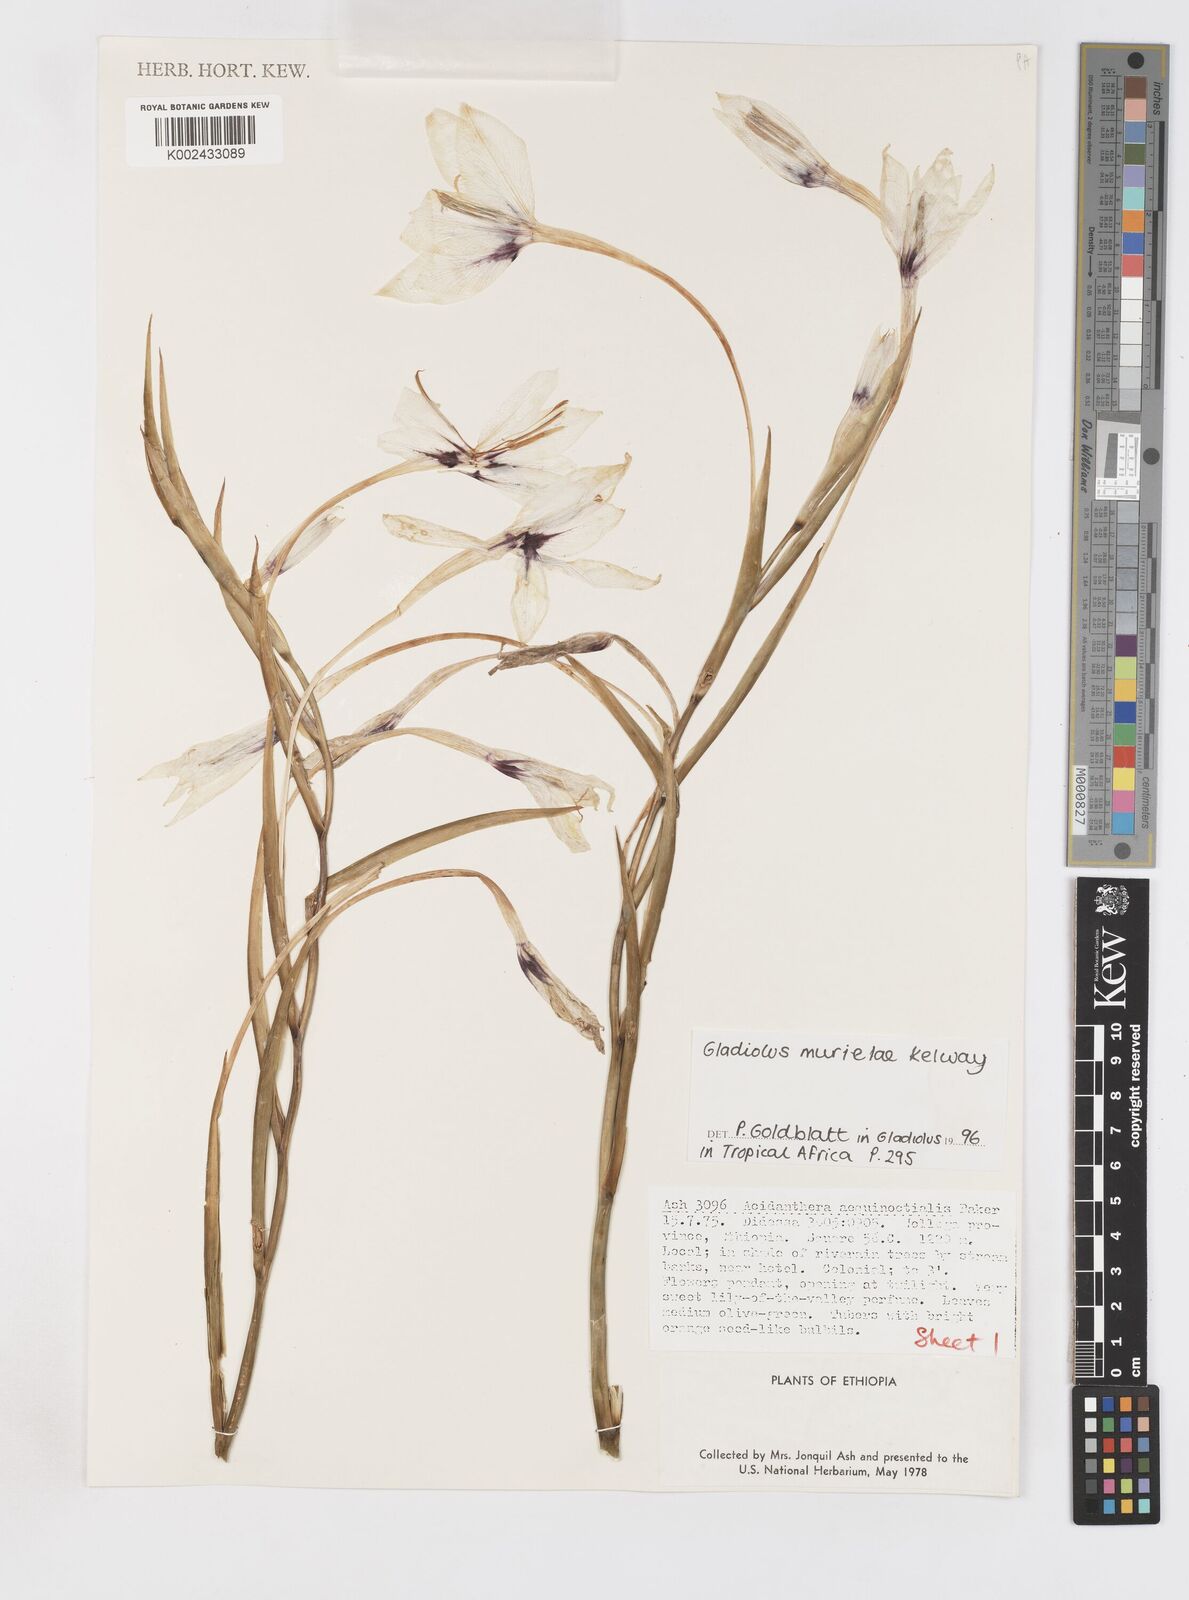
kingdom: Plantae
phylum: Tracheophyta
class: Liliopsida
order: Asparagales
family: Iridaceae
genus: Gladiolus
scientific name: Gladiolus murielae
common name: Acidanthera
